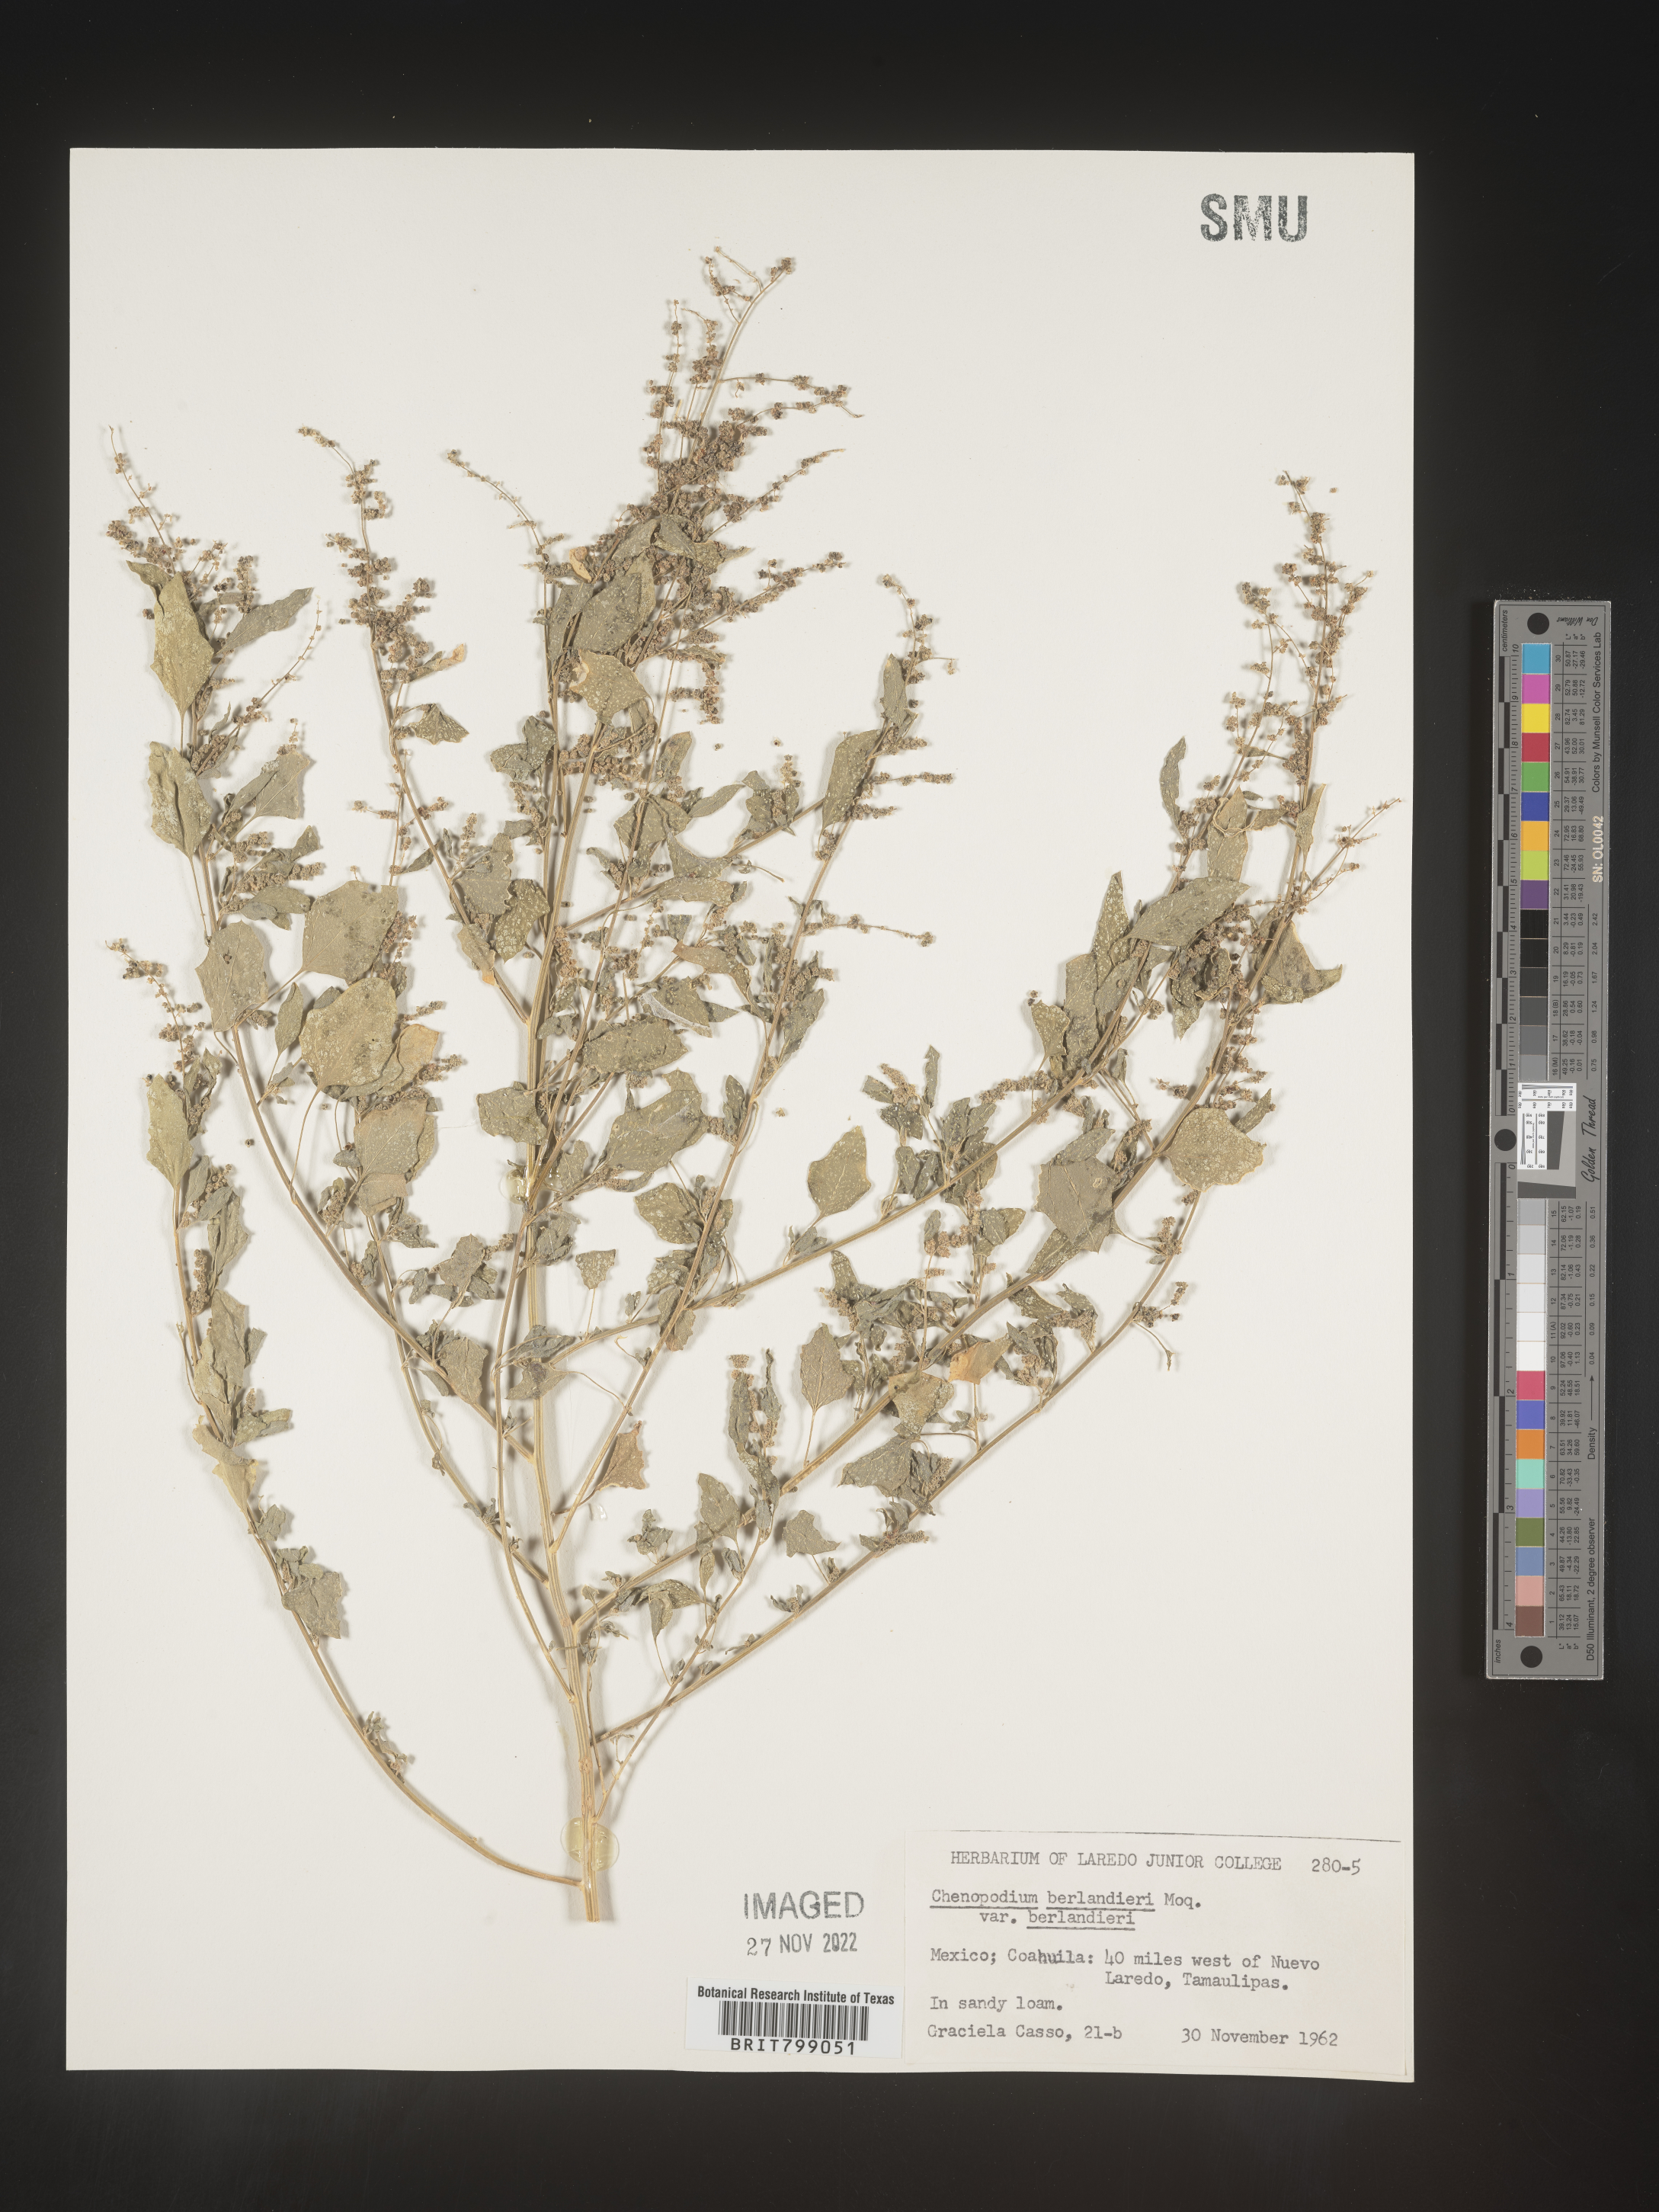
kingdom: Plantae
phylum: Tracheophyta
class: Magnoliopsida
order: Caryophyllales
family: Amaranthaceae
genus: Chenopodium
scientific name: Chenopodium
